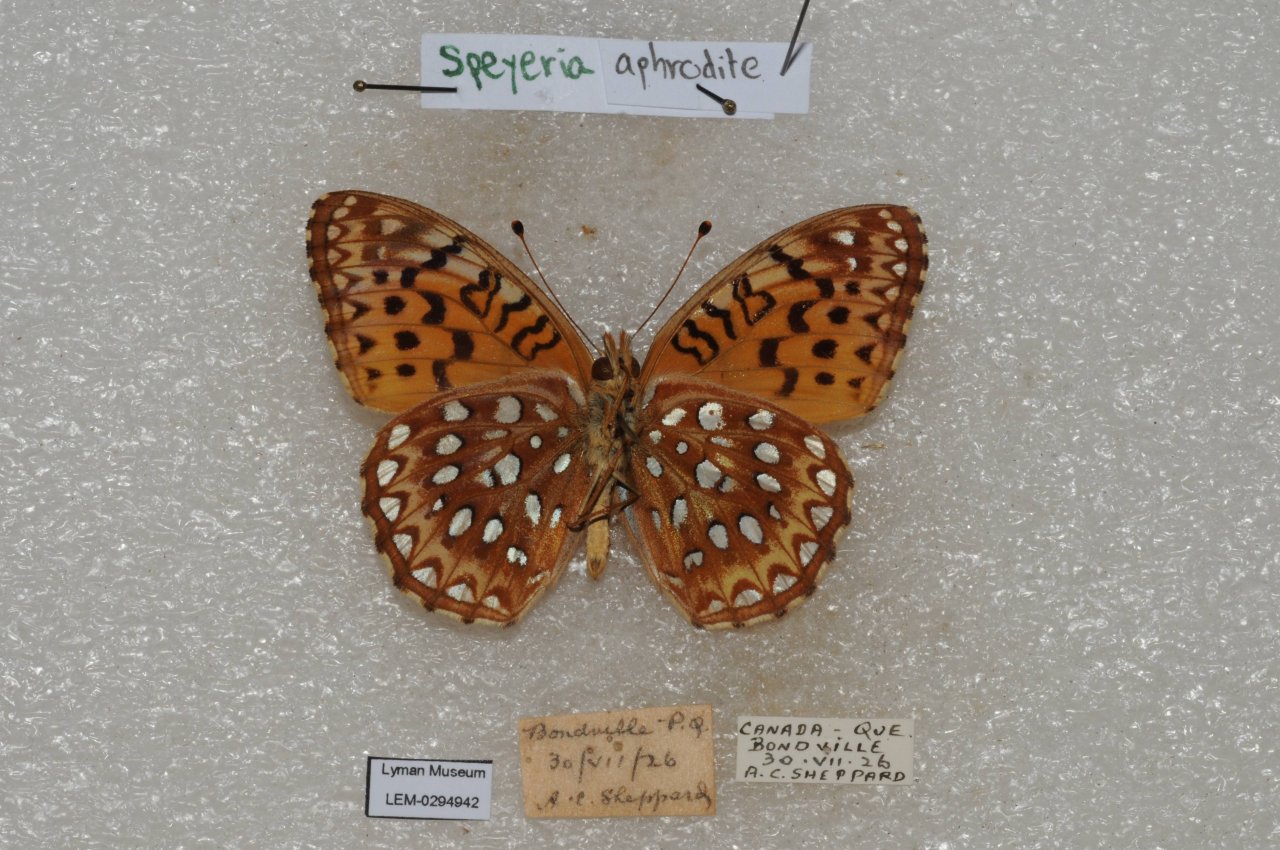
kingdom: Animalia
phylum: Arthropoda
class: Insecta
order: Lepidoptera
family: Nymphalidae
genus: Speyeria
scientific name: Speyeria aphrodite
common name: Aphrodite Fritillary
